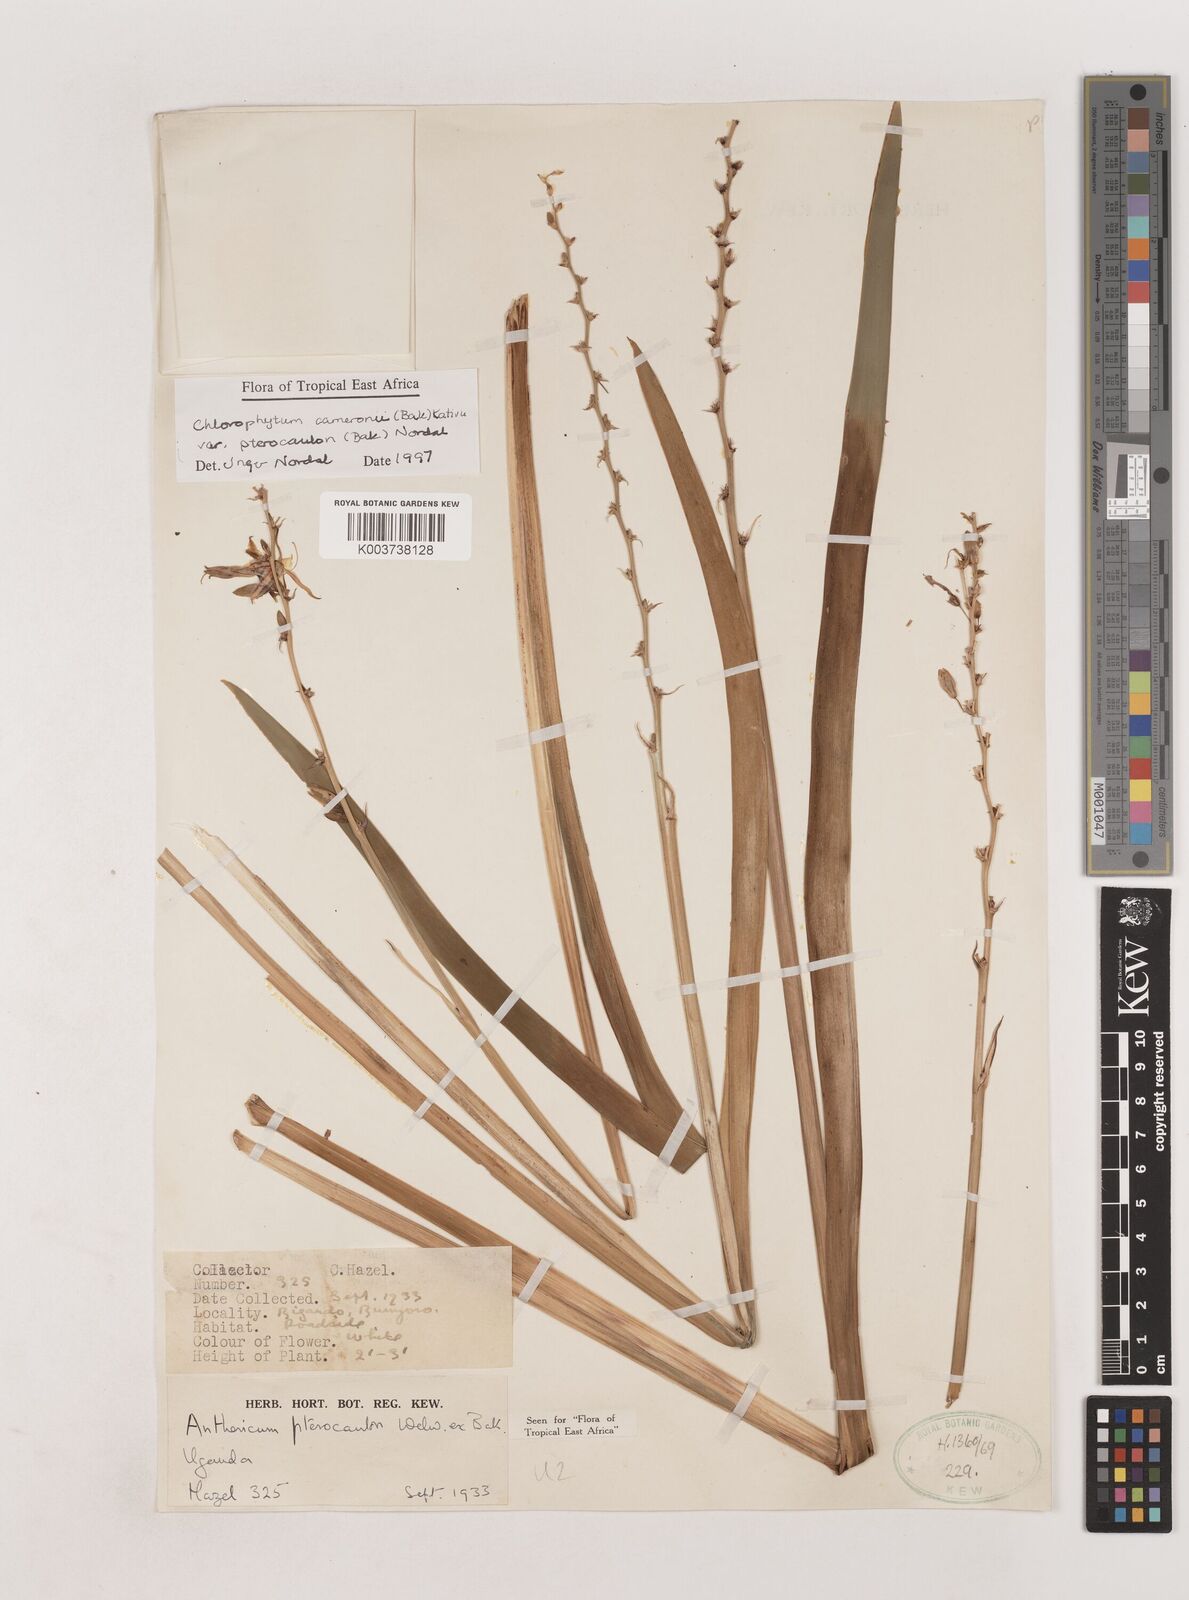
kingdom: Plantae
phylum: Tracheophyta
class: Liliopsida
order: Asparagales
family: Asparagaceae
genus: Chlorophytum
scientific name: Chlorophytum cameronii
